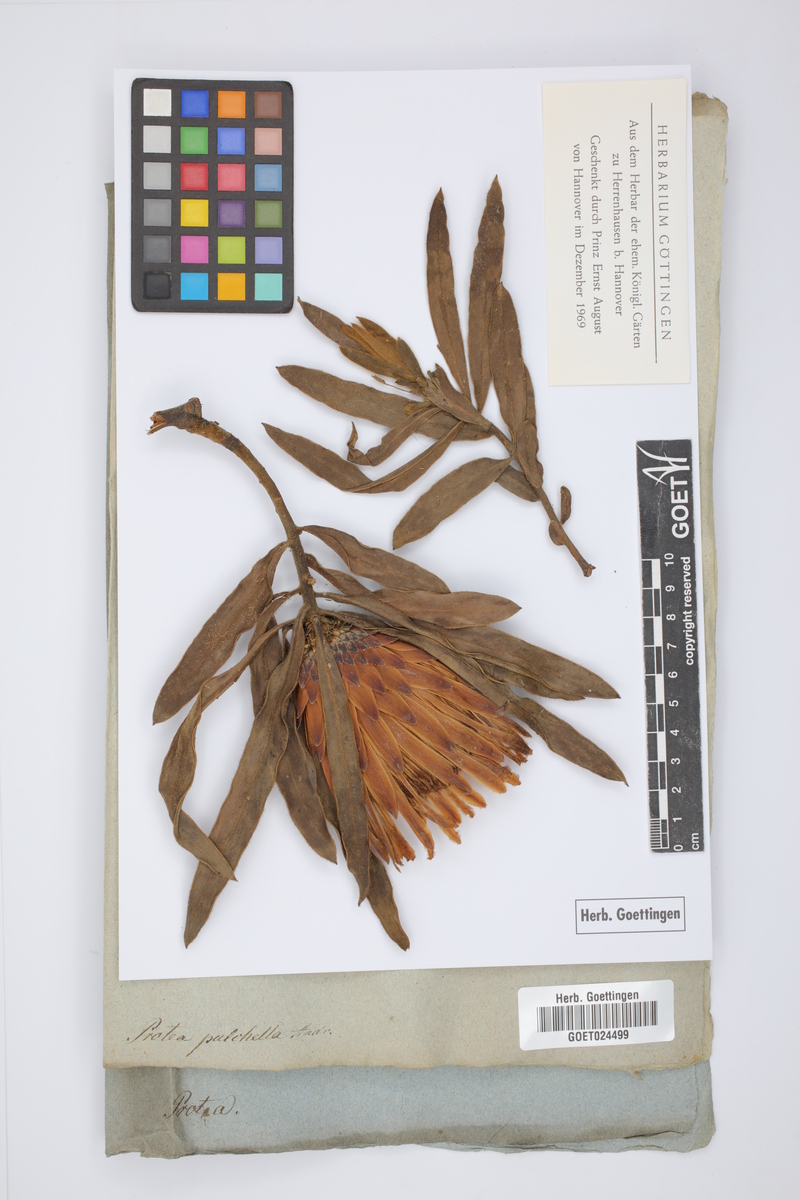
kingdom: Plantae
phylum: Tracheophyta
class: Magnoliopsida
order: Proteales
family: Proteaceae
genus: Protea
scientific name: Protea burchellii
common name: Burchell's sugarbush
